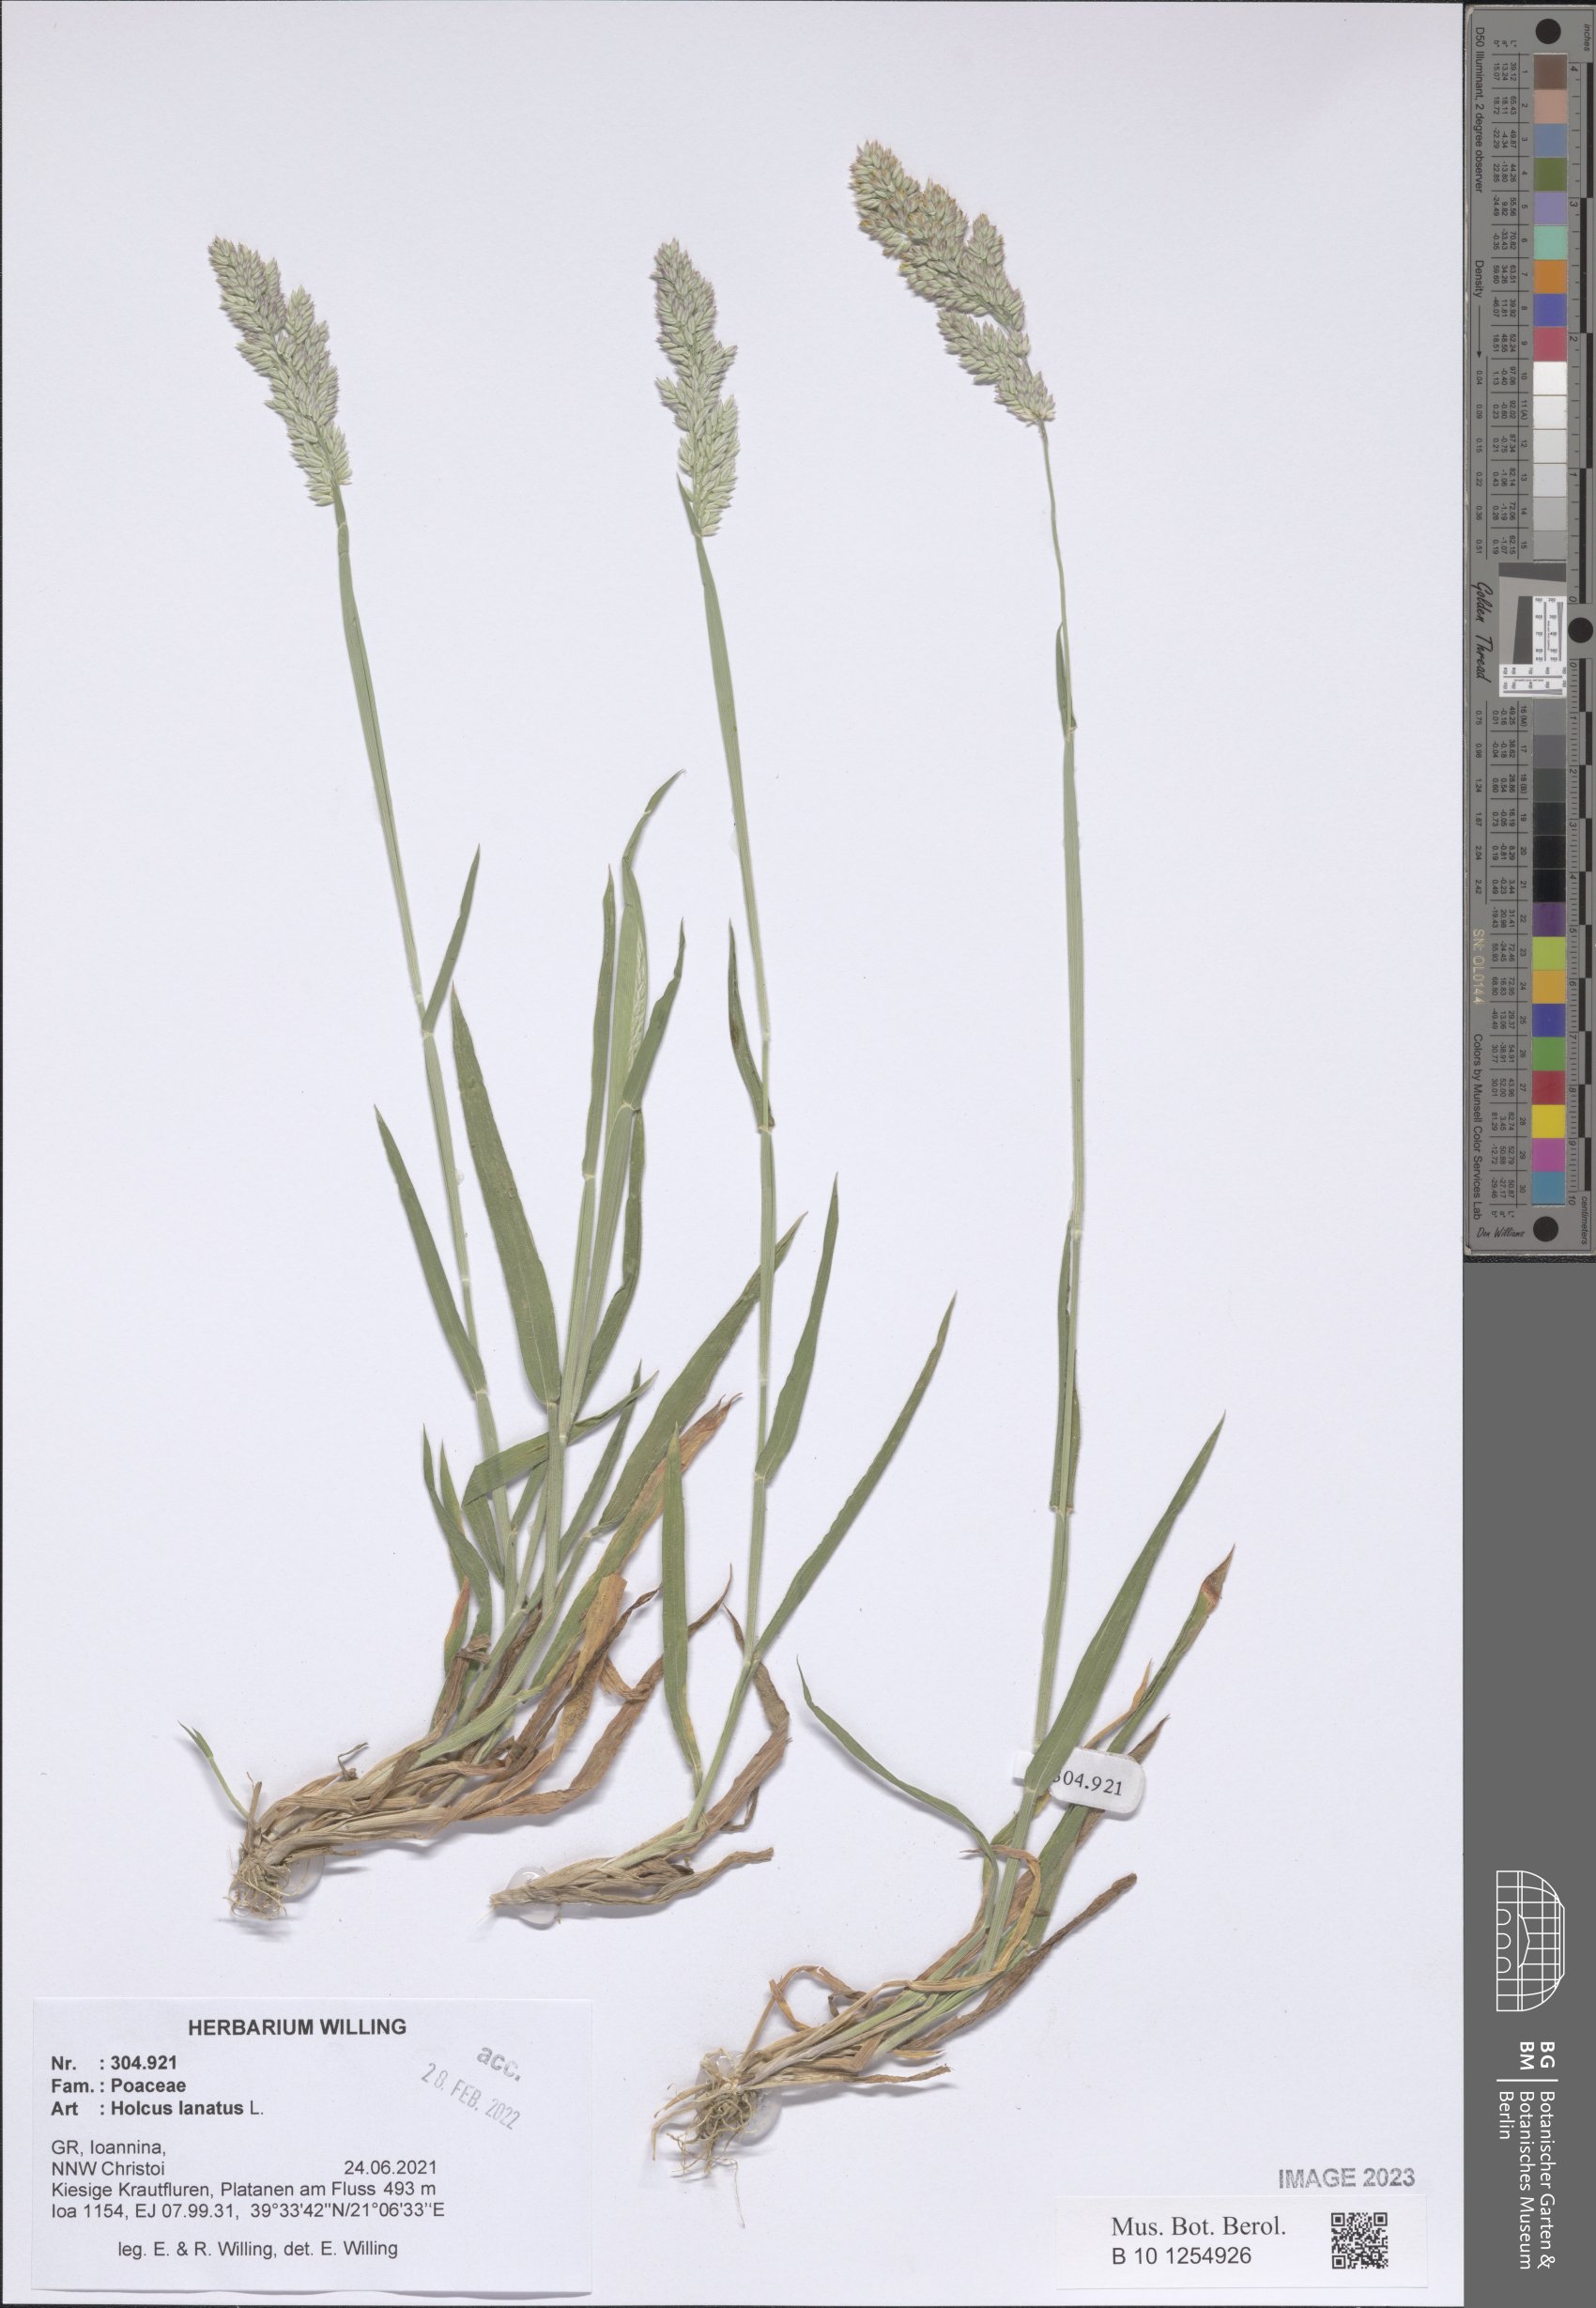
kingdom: Plantae
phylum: Tracheophyta
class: Liliopsida
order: Poales
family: Poaceae
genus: Holcus
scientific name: Holcus lanatus
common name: Yorkshire-fog
